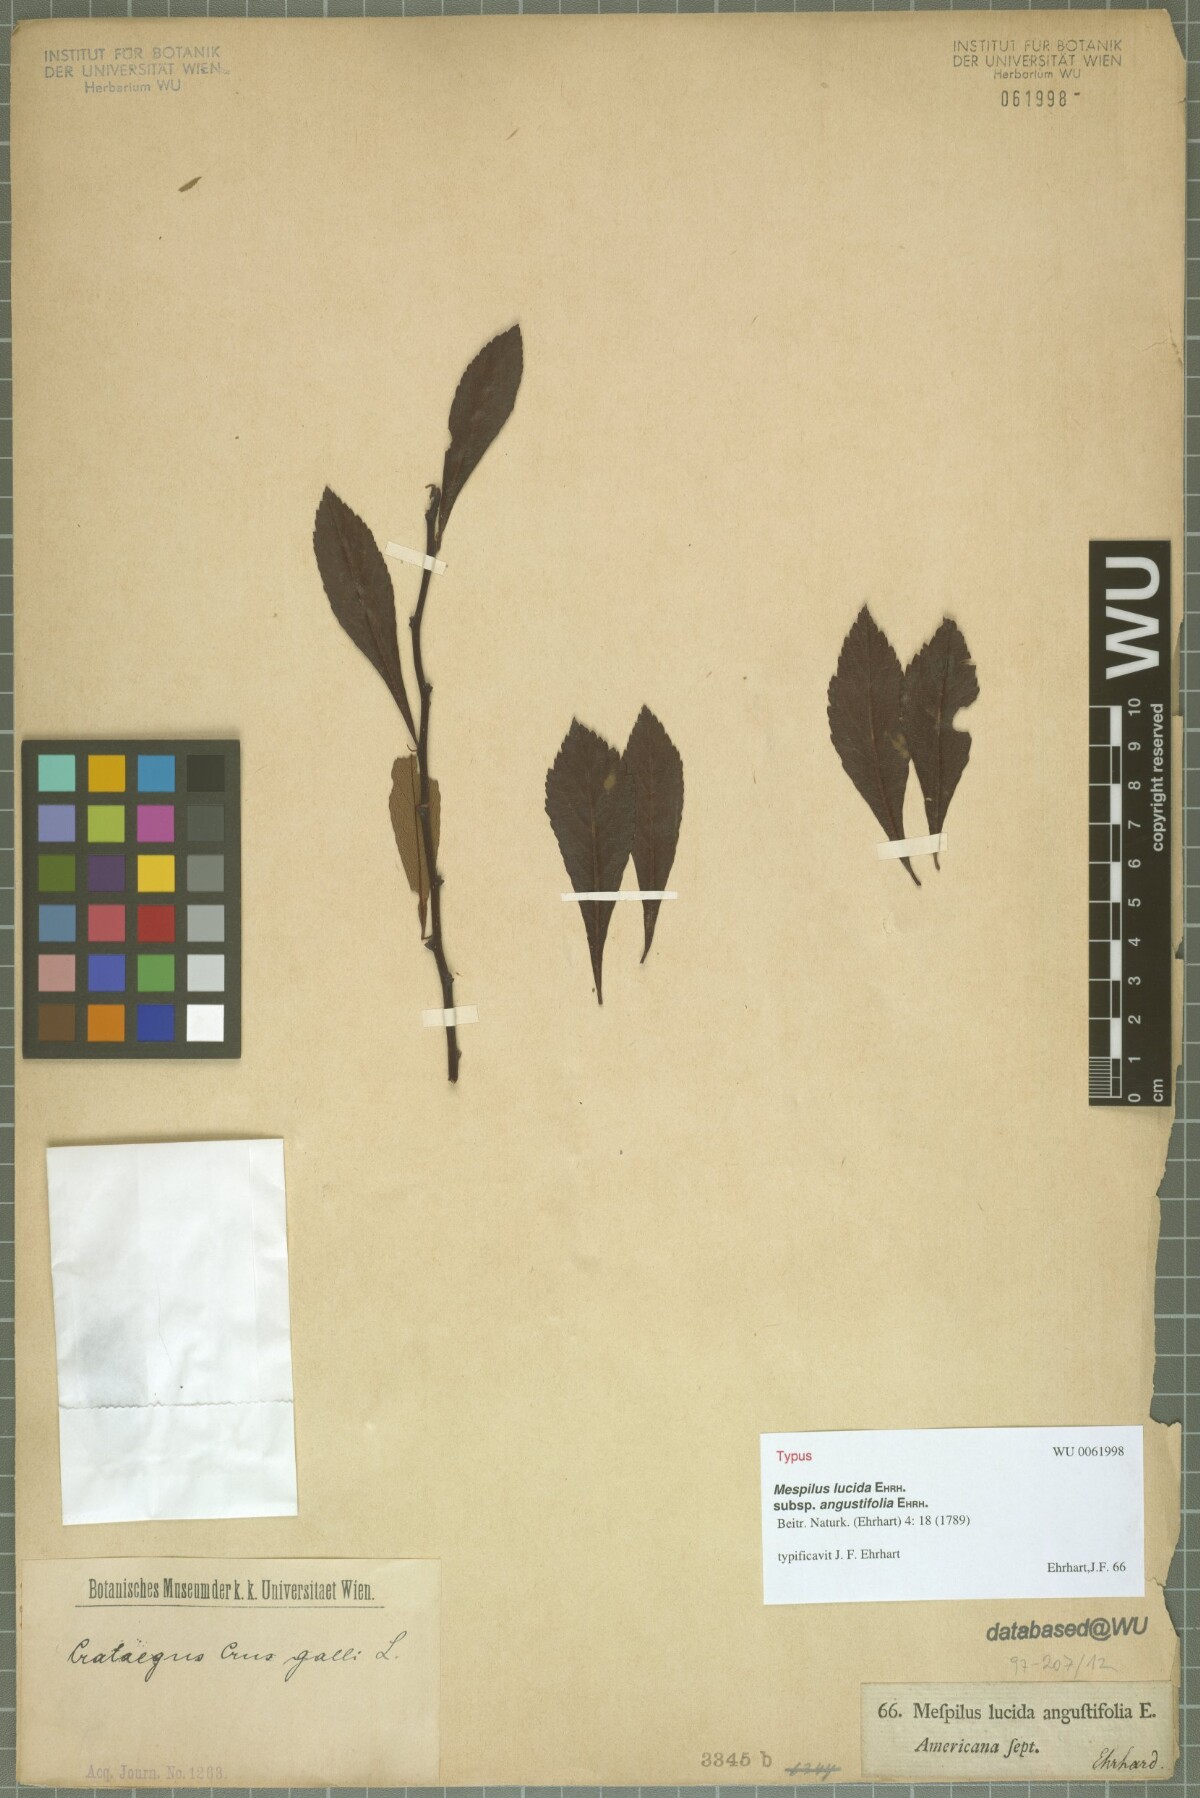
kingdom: Plantae
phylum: Tracheophyta
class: Magnoliopsida
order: Rosales
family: Rosaceae
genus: Crataegus
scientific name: Crataegus crus-galli
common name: Cockspurthorn
